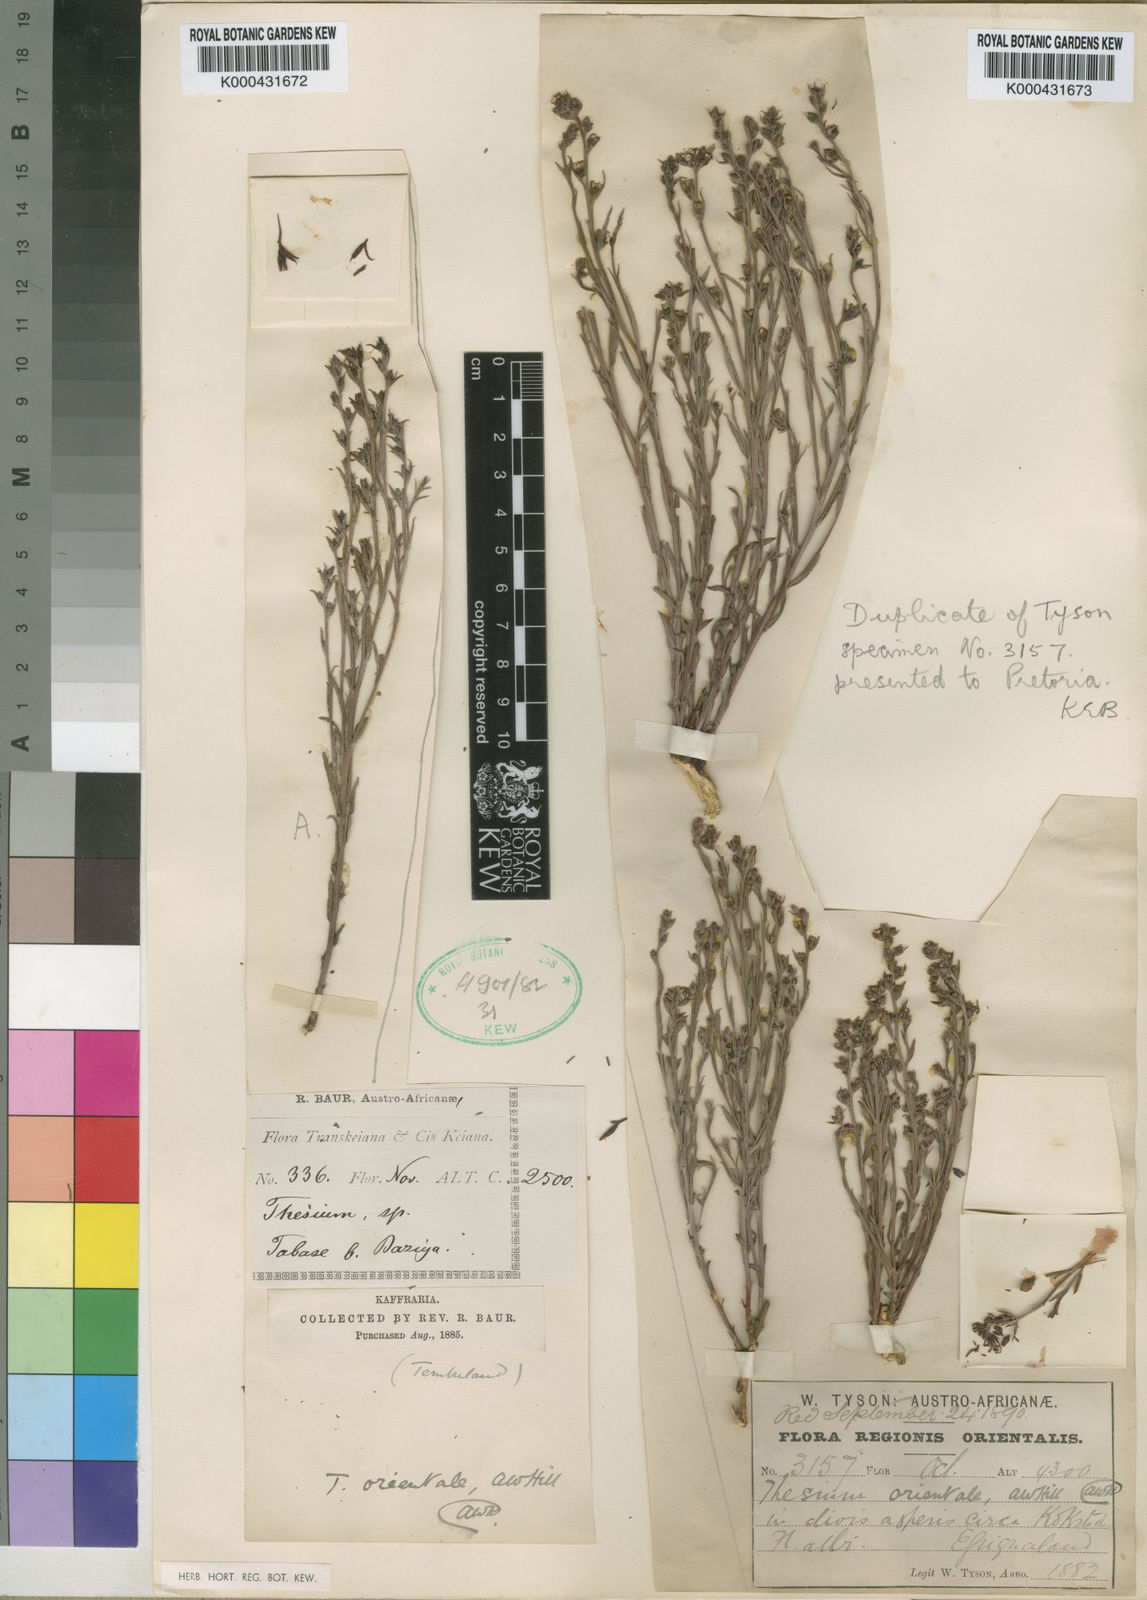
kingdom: Plantae
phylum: Tracheophyta
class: Magnoliopsida
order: Santalales
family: Thesiaceae
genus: Thesium
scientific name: Thesium orientale
